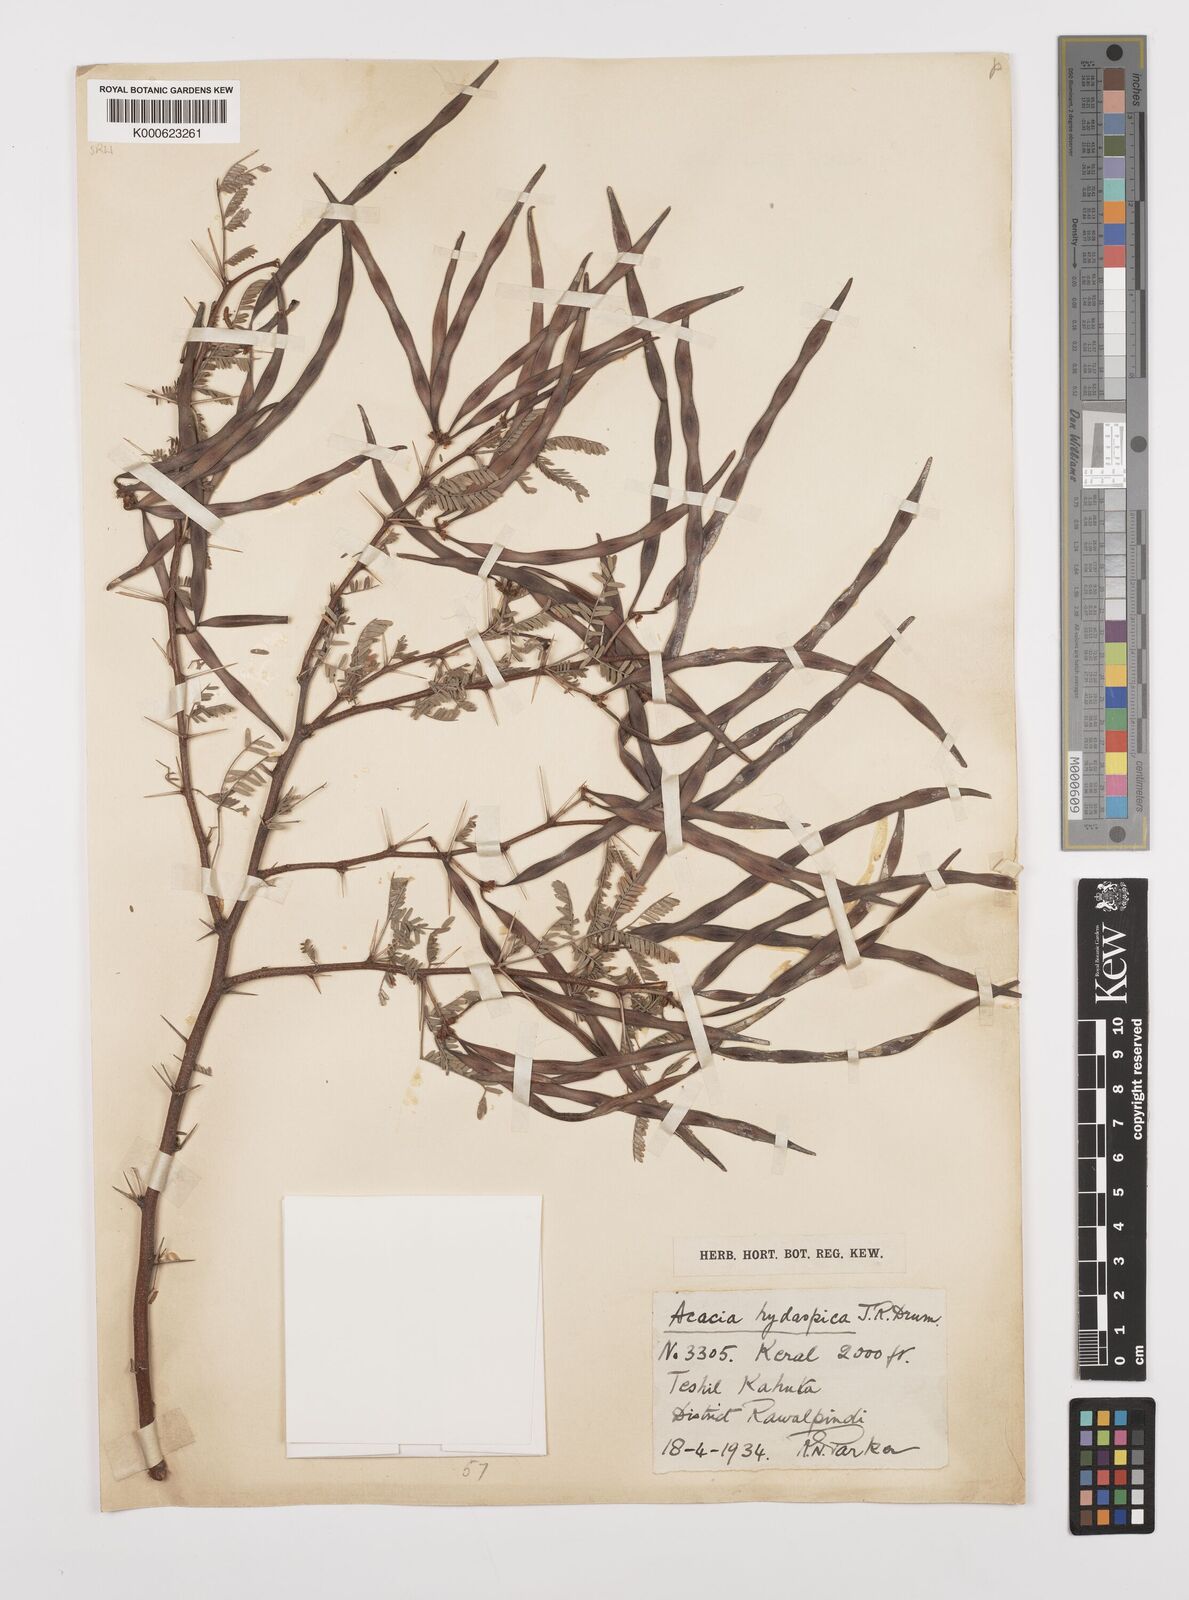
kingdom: Plantae
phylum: Tracheophyta
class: Magnoliopsida
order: Fabales
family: Fabaceae
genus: Vachellia
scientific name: Vachellia hydaspica
